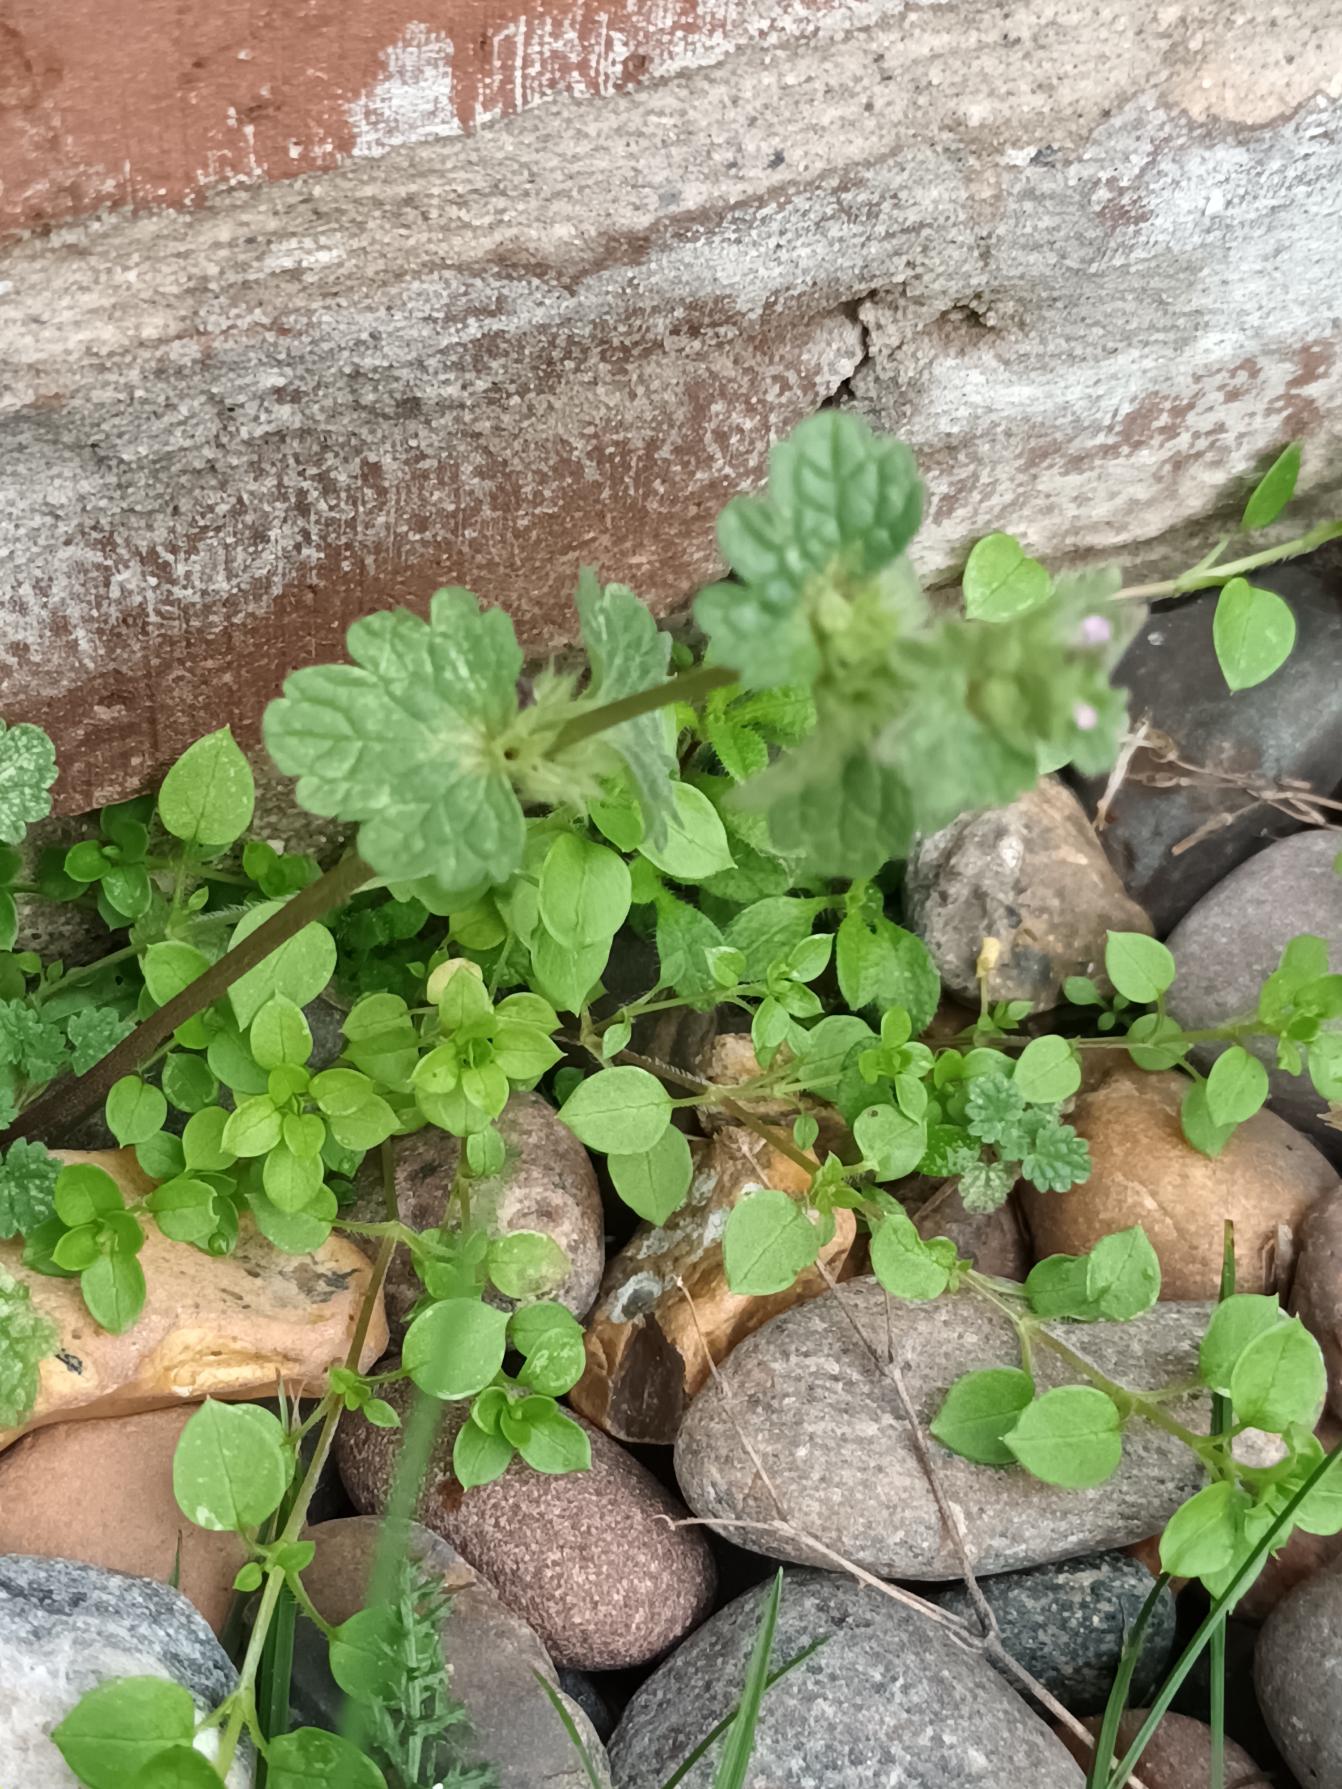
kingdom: Plantae
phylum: Tracheophyta
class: Magnoliopsida
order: Lamiales
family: Lamiaceae
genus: Lamium
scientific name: Lamium amplexicaule
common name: Liden tvetand
